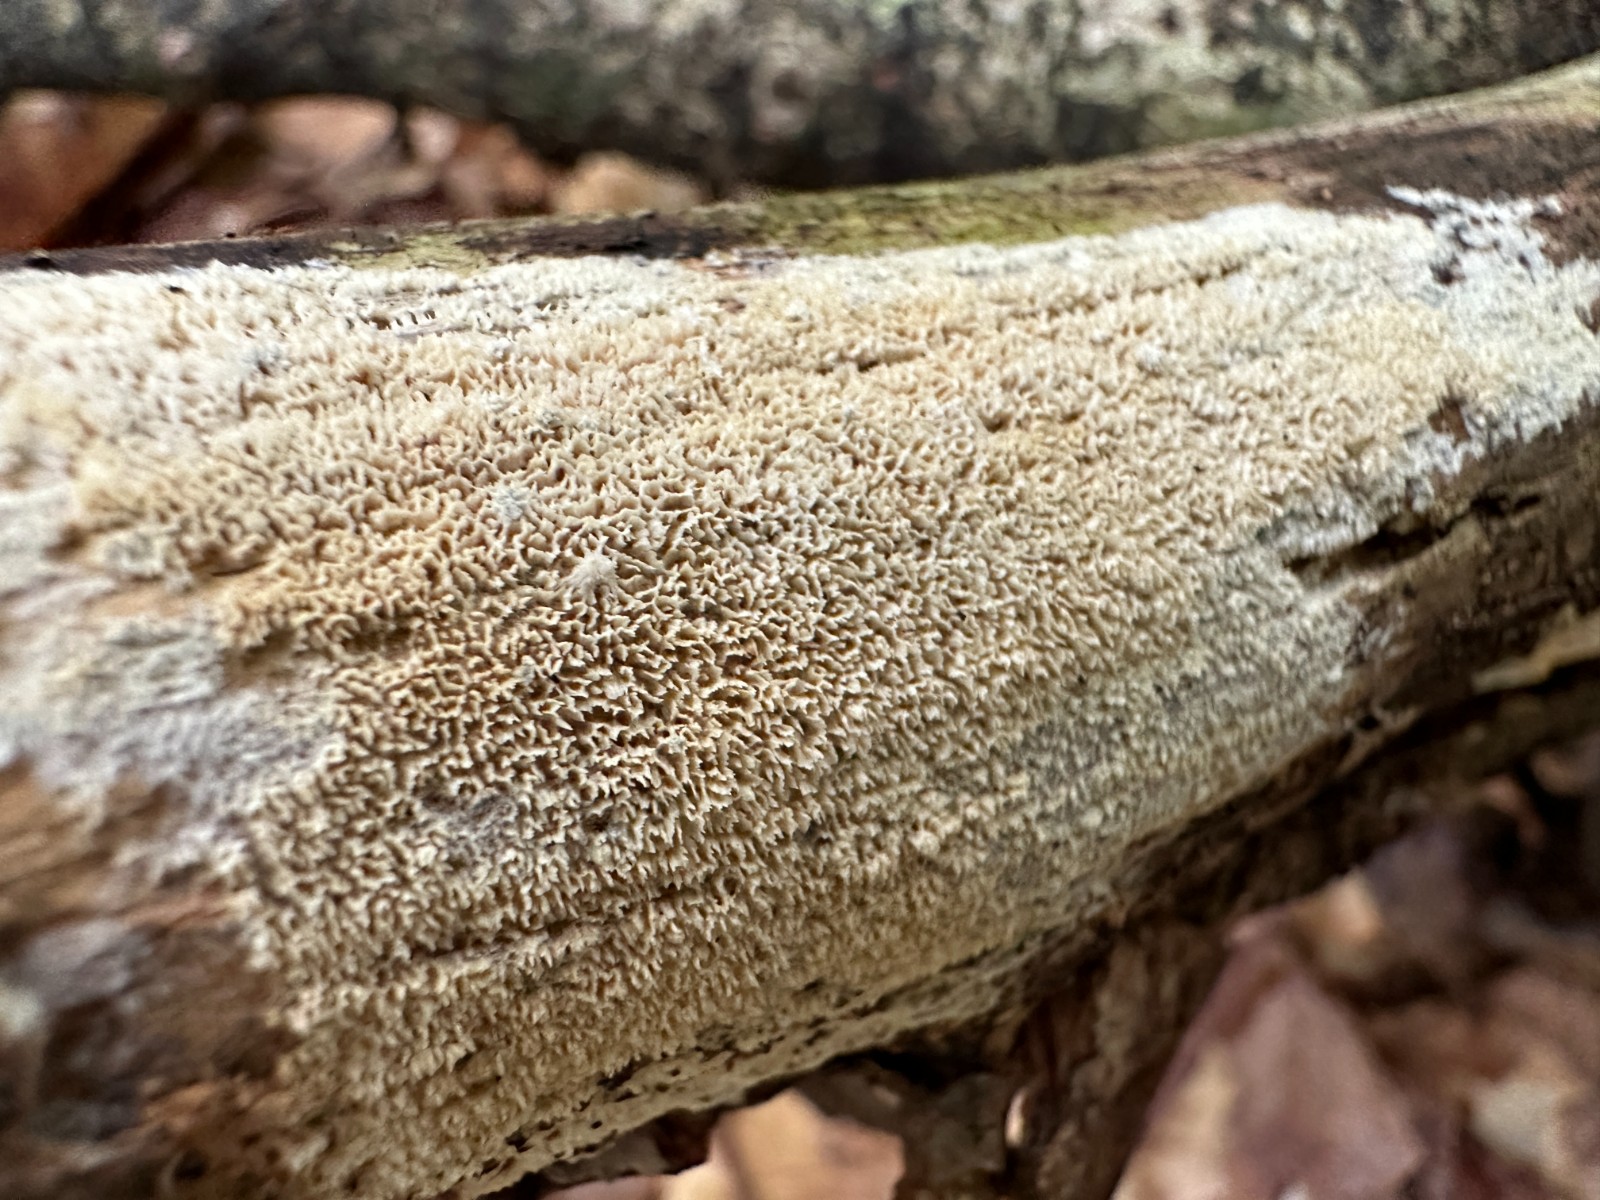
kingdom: Fungi
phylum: Basidiomycota
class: Agaricomycetes
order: Hymenochaetales
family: Schizoporaceae
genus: Xylodon
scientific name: Xylodon subtropicus
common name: labyrint-tandsvamp
